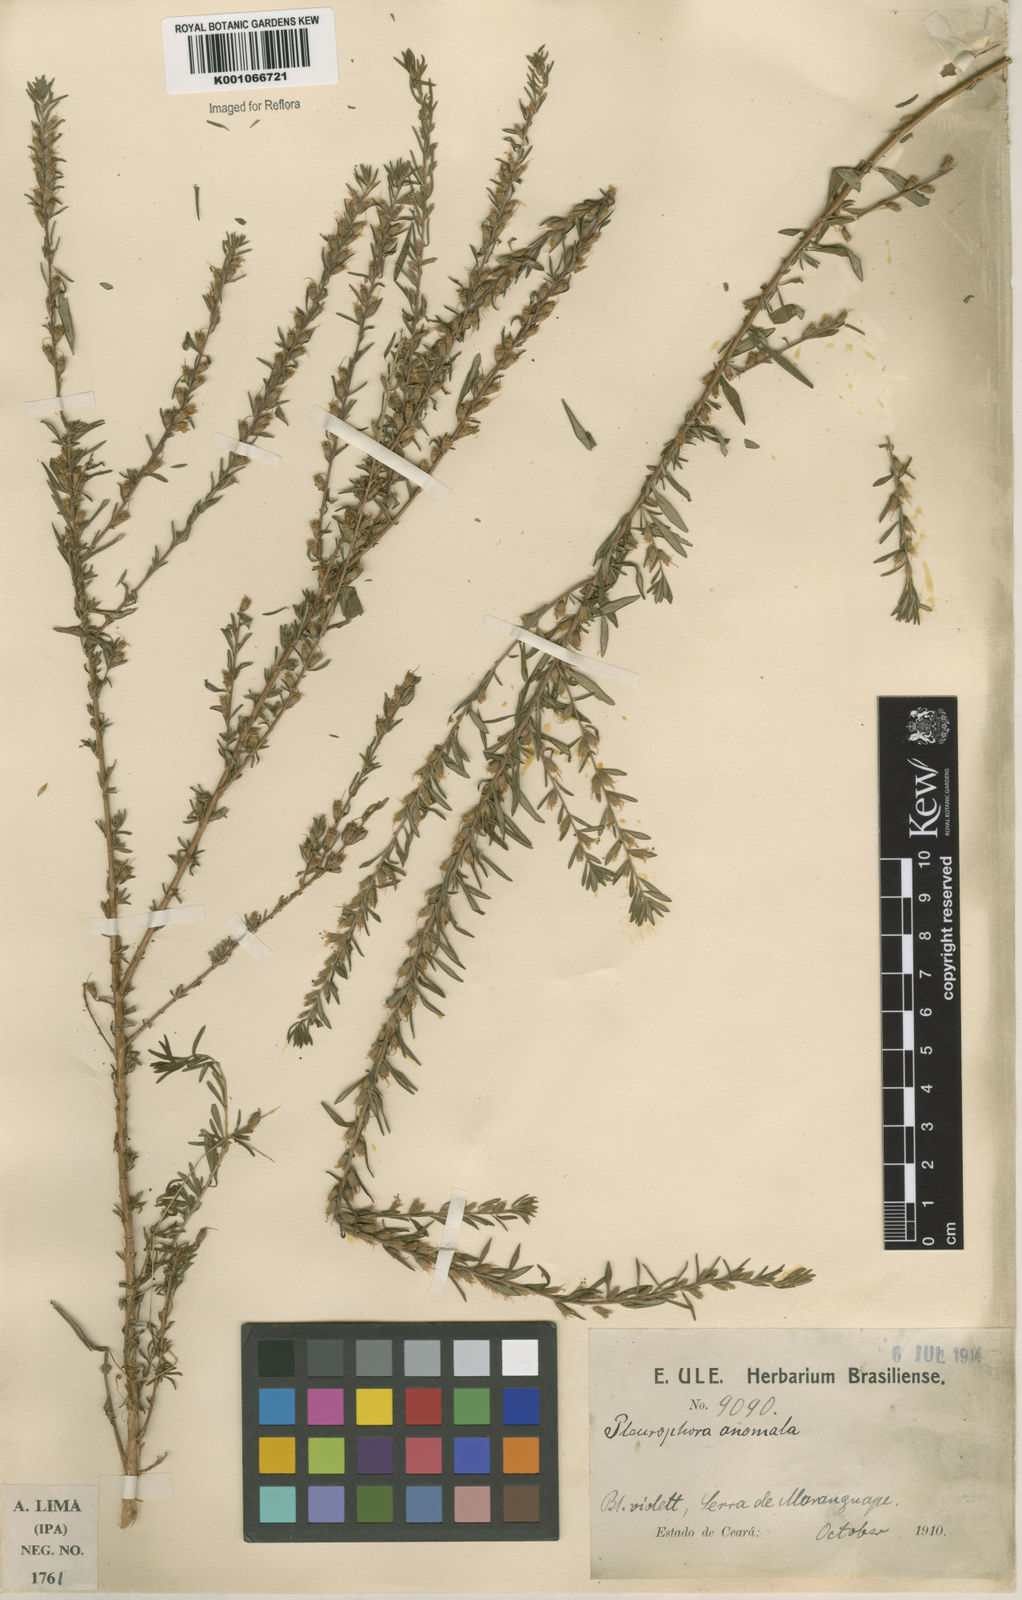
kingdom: Plantae
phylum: Tracheophyta
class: Magnoliopsida
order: Myrtales
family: Lythraceae
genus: Pleurophora
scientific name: Pleurophora anomala
